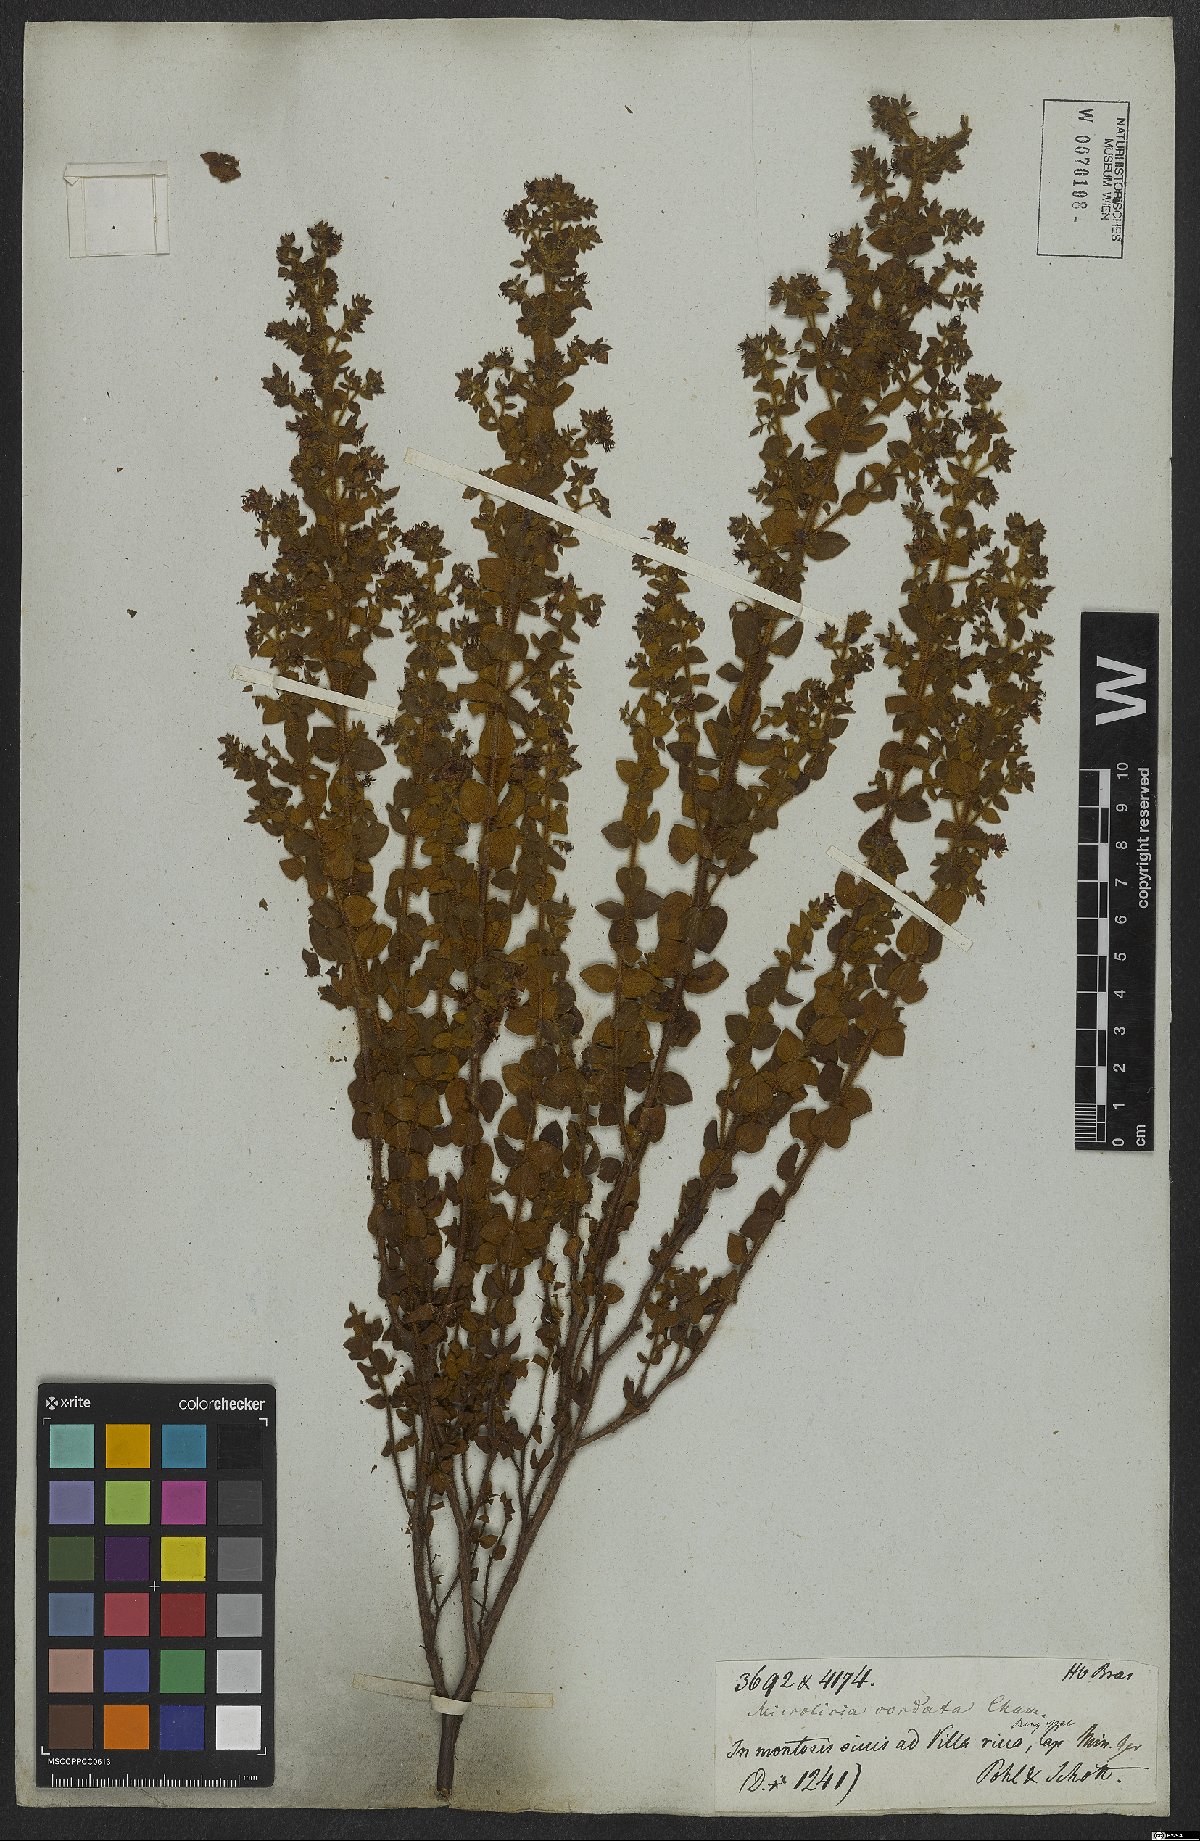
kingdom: Plantae
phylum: Tracheophyta
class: Magnoliopsida
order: Myrtales
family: Melastomataceae
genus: Microlicia
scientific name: Microlicia cordata
